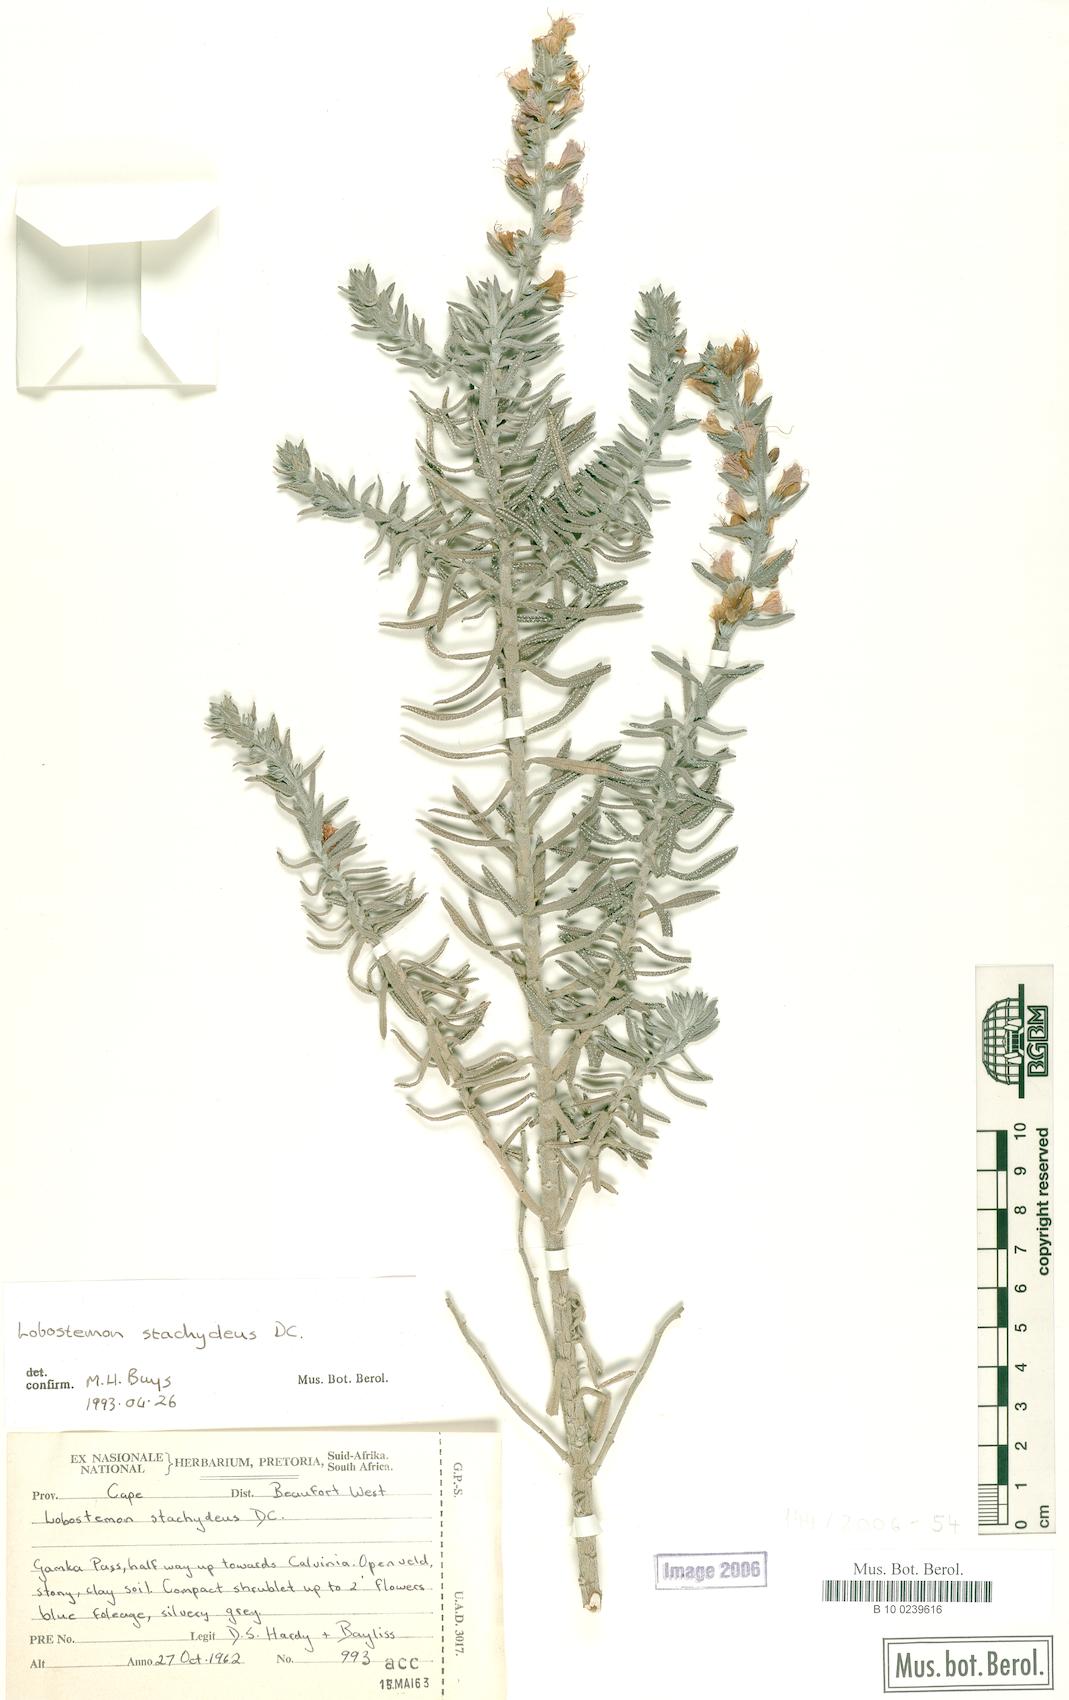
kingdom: Plantae
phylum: Tracheophyta
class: Magnoliopsida
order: Boraginales
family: Boraginaceae
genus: Lobostemon
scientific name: Lobostemon stachydeus
